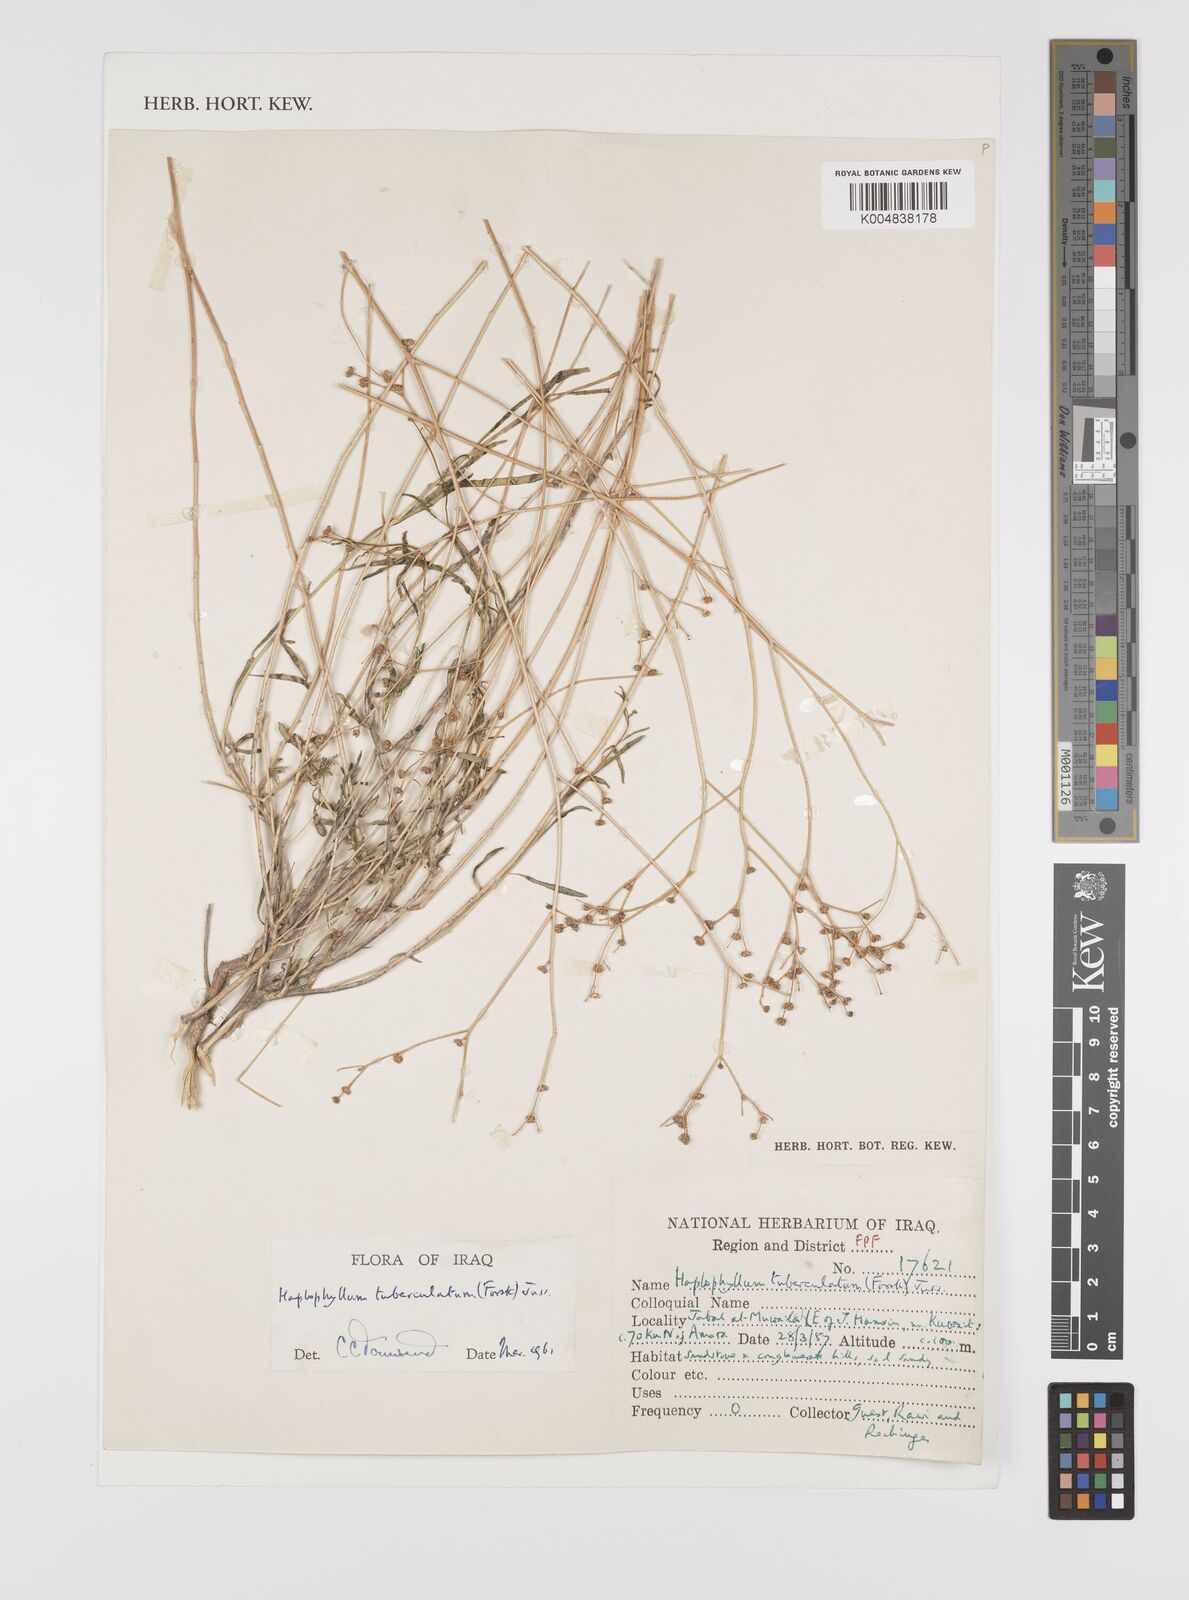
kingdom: Plantae
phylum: Tracheophyta
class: Magnoliopsida
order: Sapindales
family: Rutaceae
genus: Haplophyllum
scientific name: Haplophyllum tuberculatum
